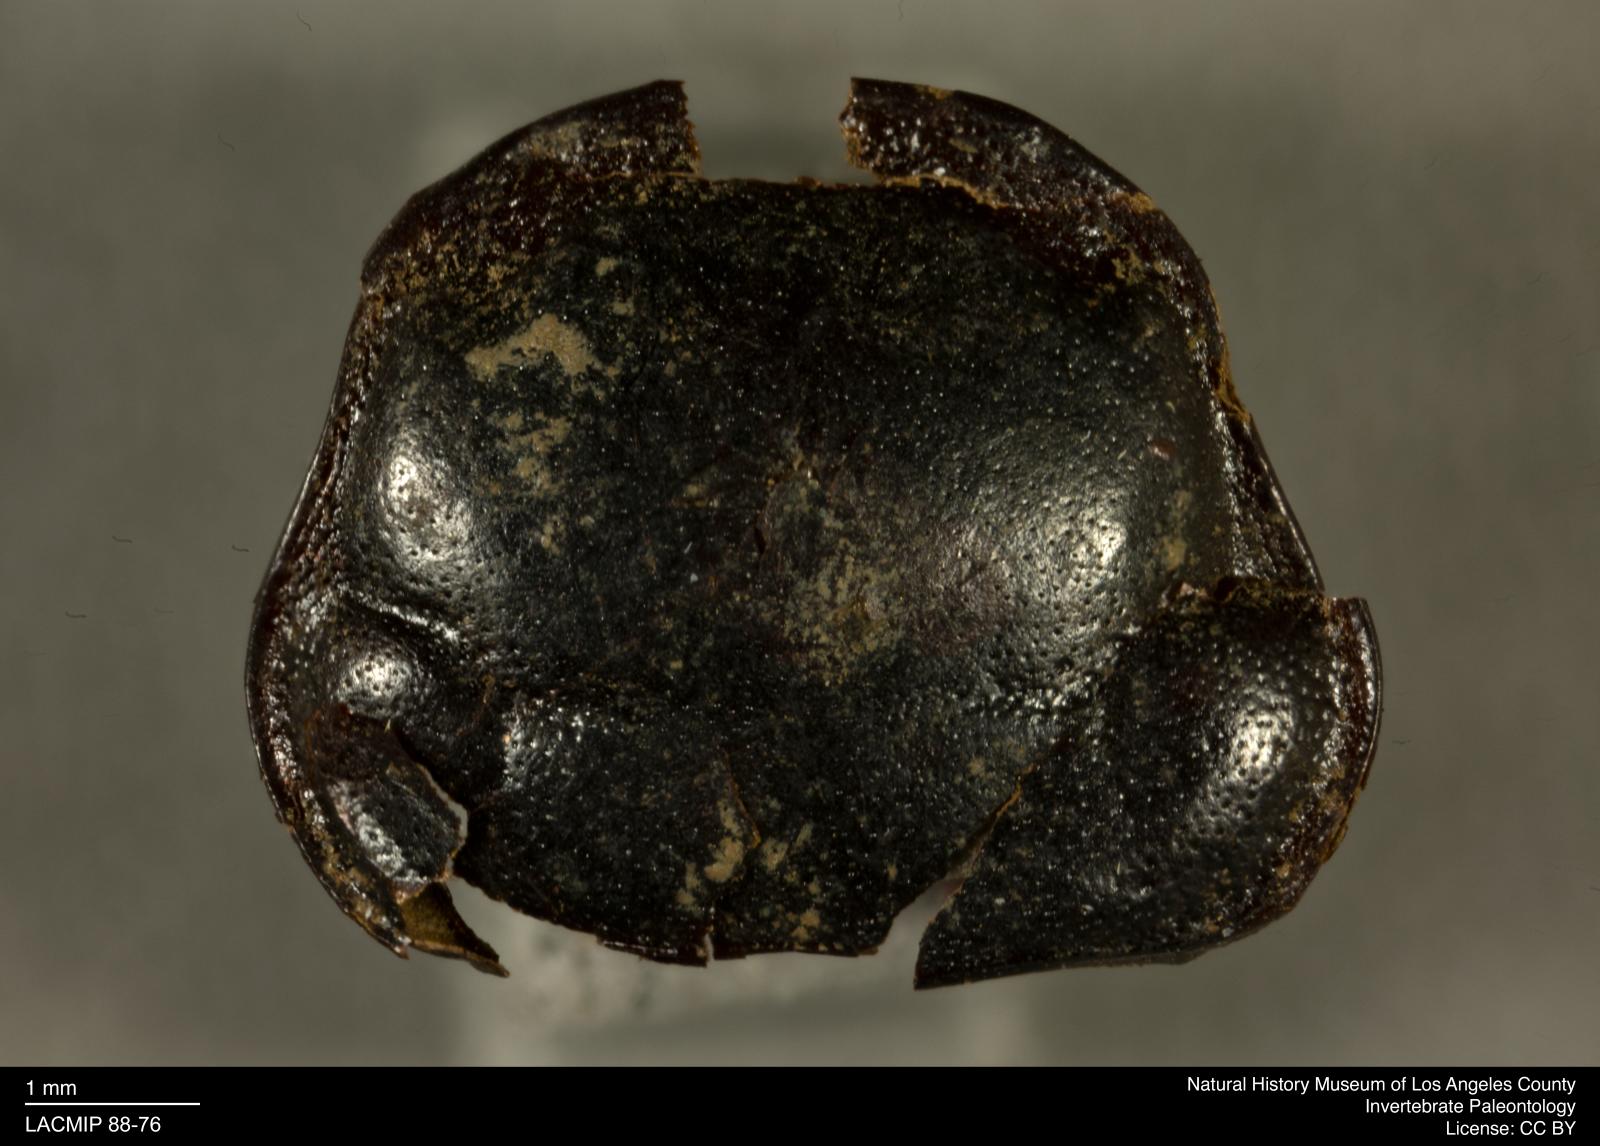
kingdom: Animalia
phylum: Arthropoda
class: Insecta
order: Coleoptera
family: Staphylinidae
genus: Nicrophorus
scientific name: Nicrophorus marginatus
